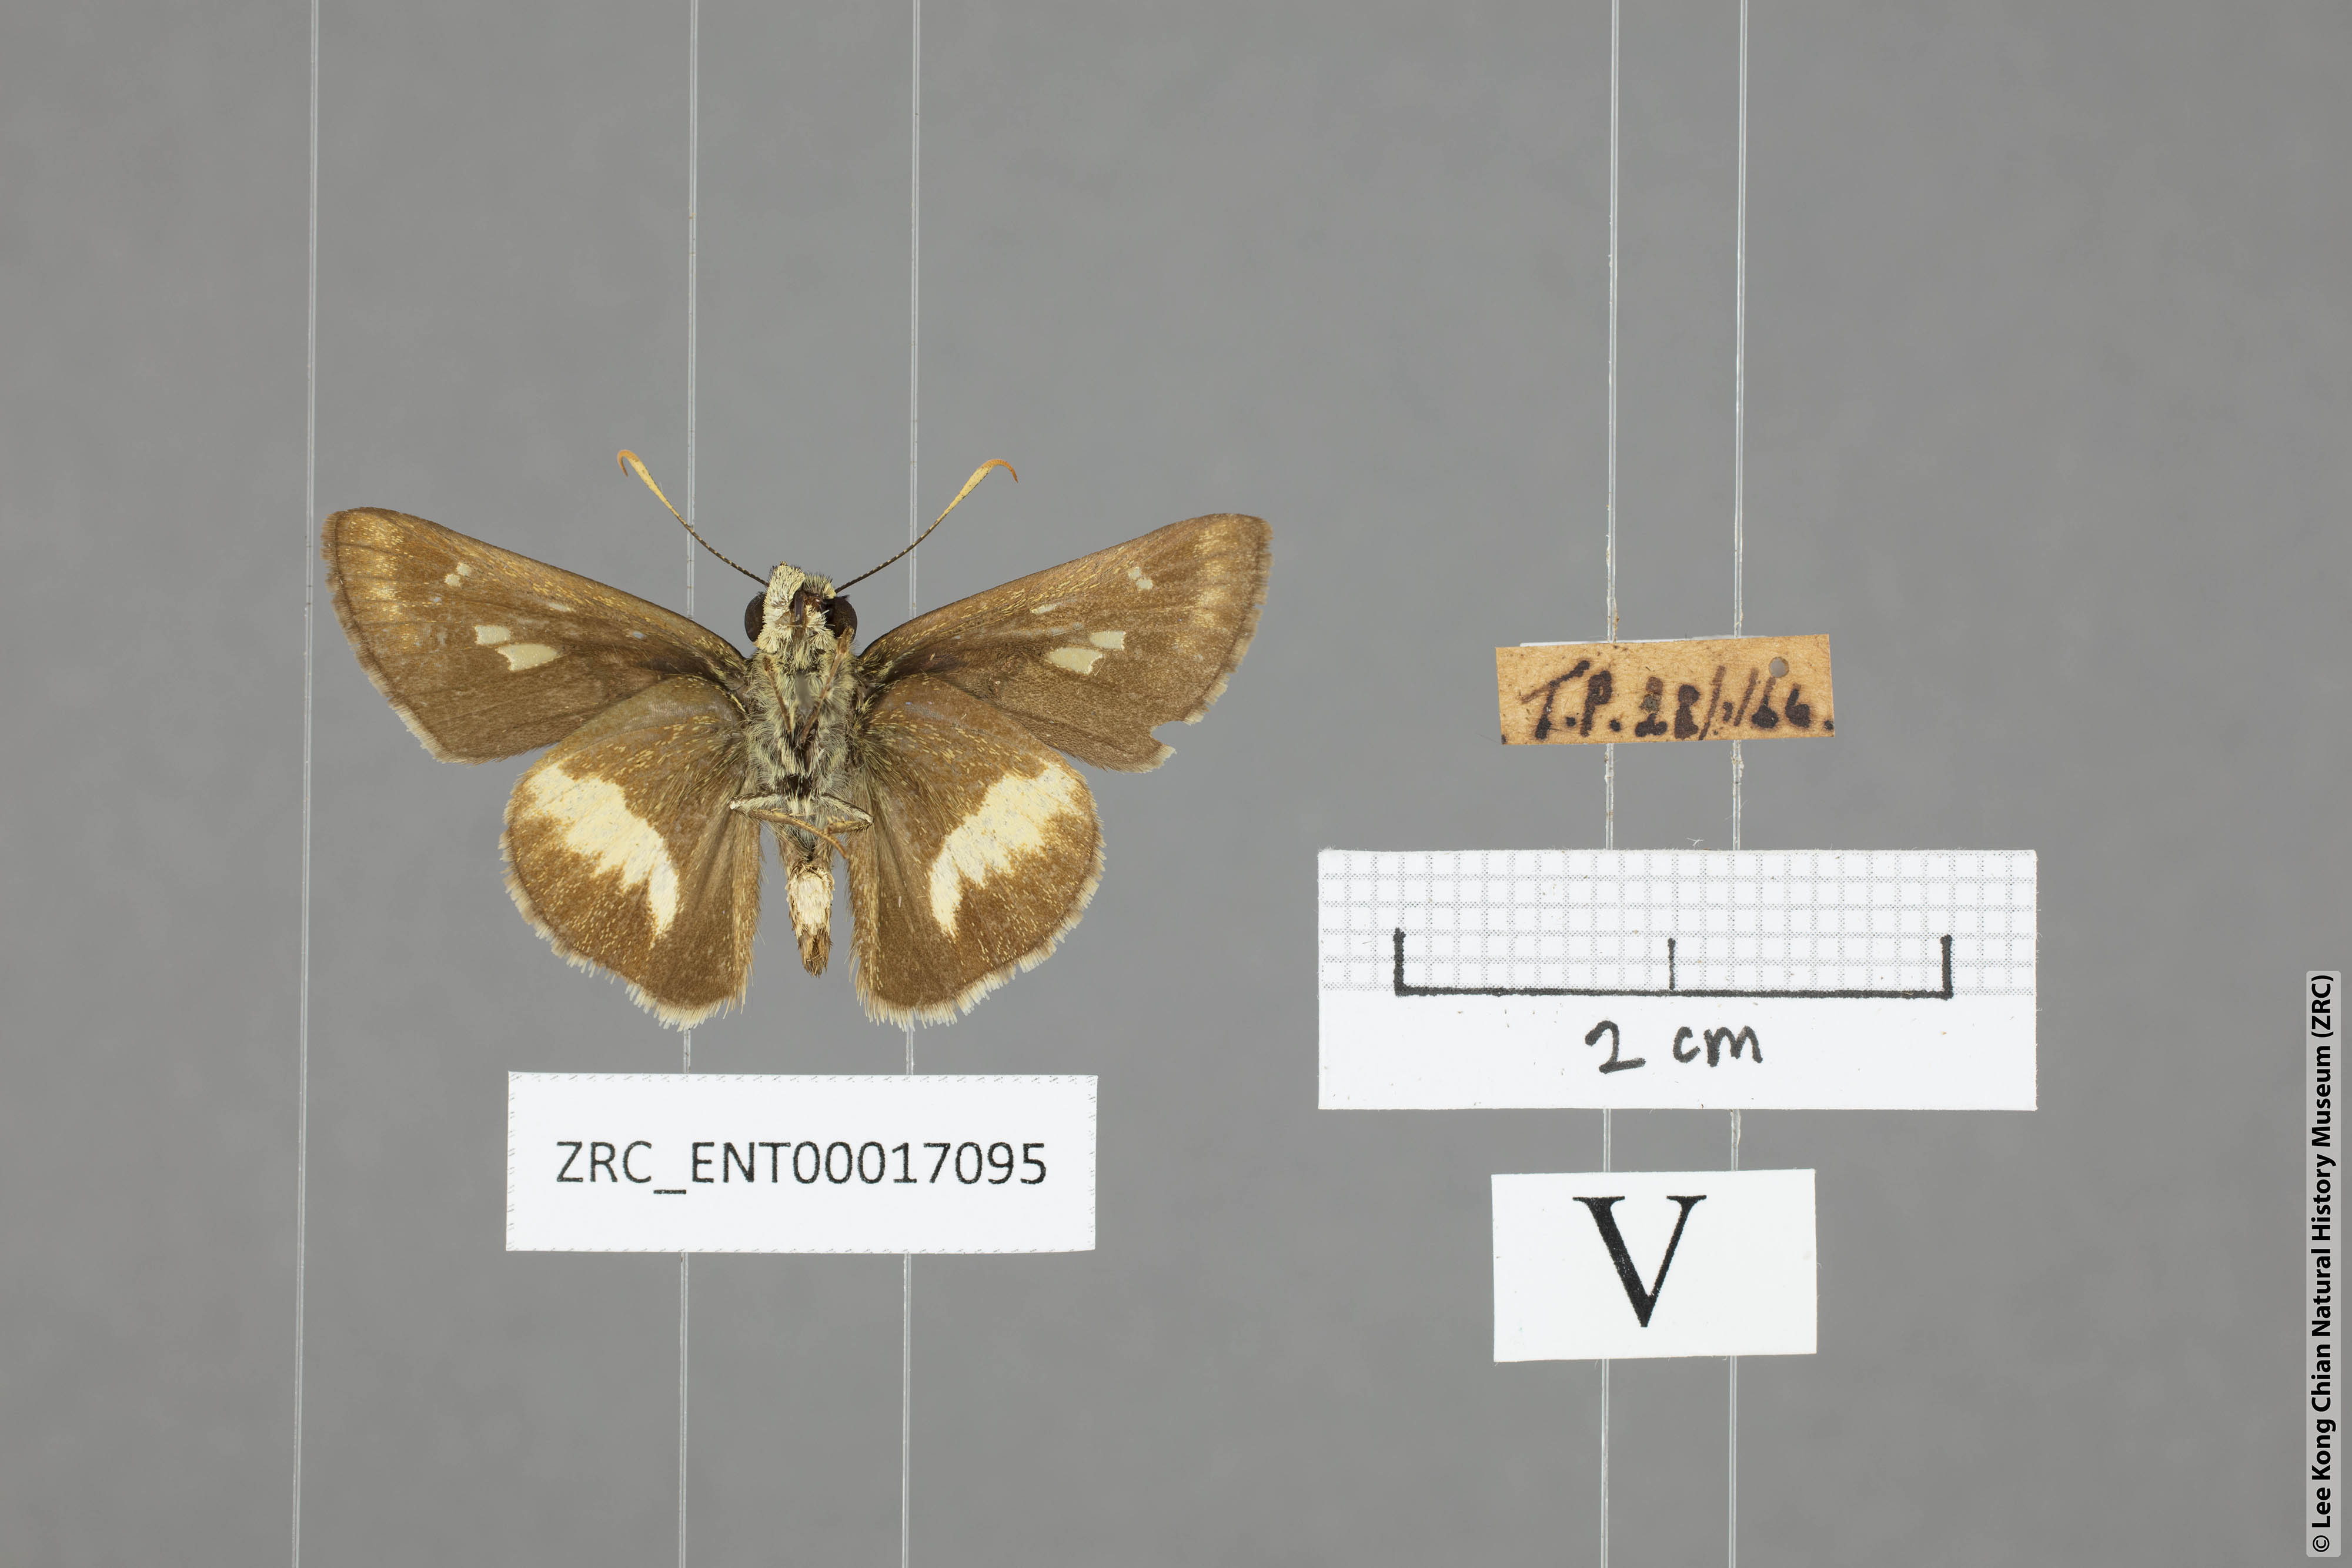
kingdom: Animalia
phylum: Arthropoda
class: Insecta
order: Lepidoptera
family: Hesperiidae
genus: Halpe
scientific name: Halpe zema
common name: Dark banded ace
